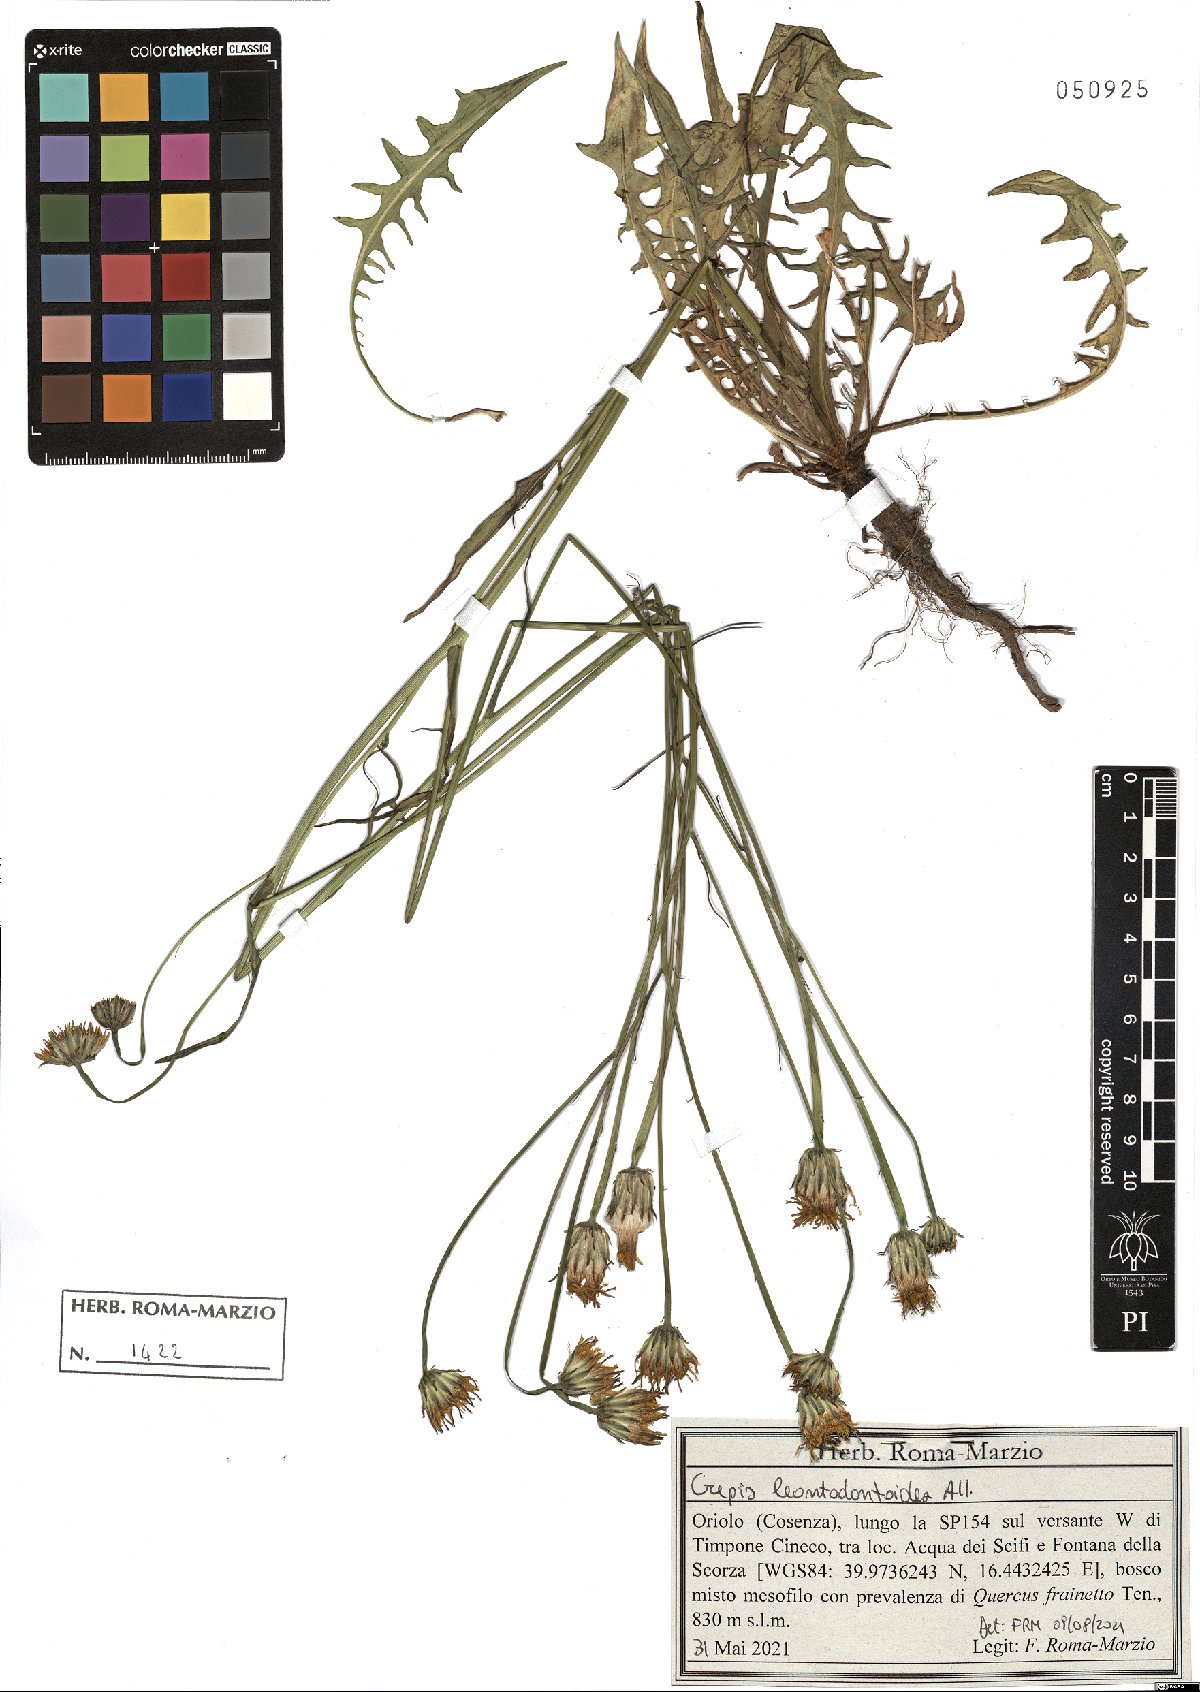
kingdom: Plantae
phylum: Tracheophyta
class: Magnoliopsida
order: Asterales
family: Asteraceae
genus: Crepis
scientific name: Crepis leontodontoides
